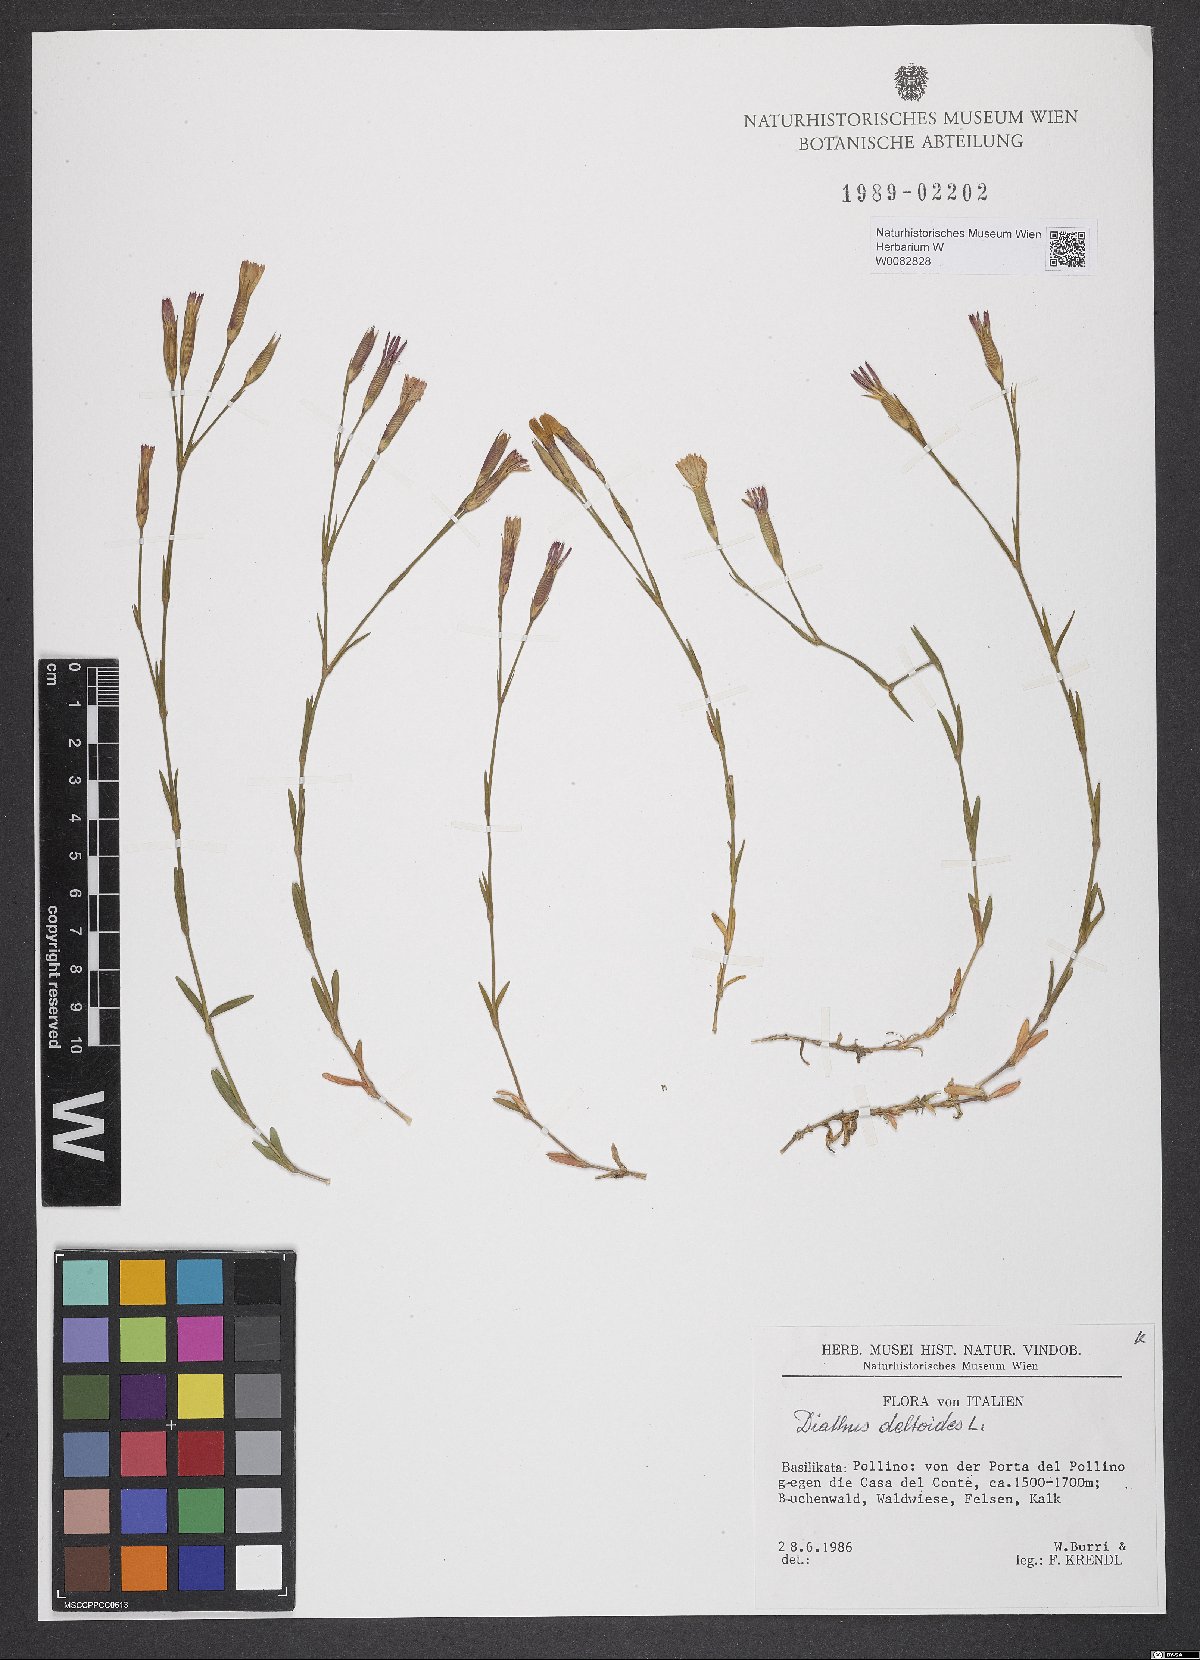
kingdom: Plantae
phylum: Tracheophyta
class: Magnoliopsida
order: Caryophyllales
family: Caryophyllaceae
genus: Dianthus
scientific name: Dianthus deltoides
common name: Maiden pink
